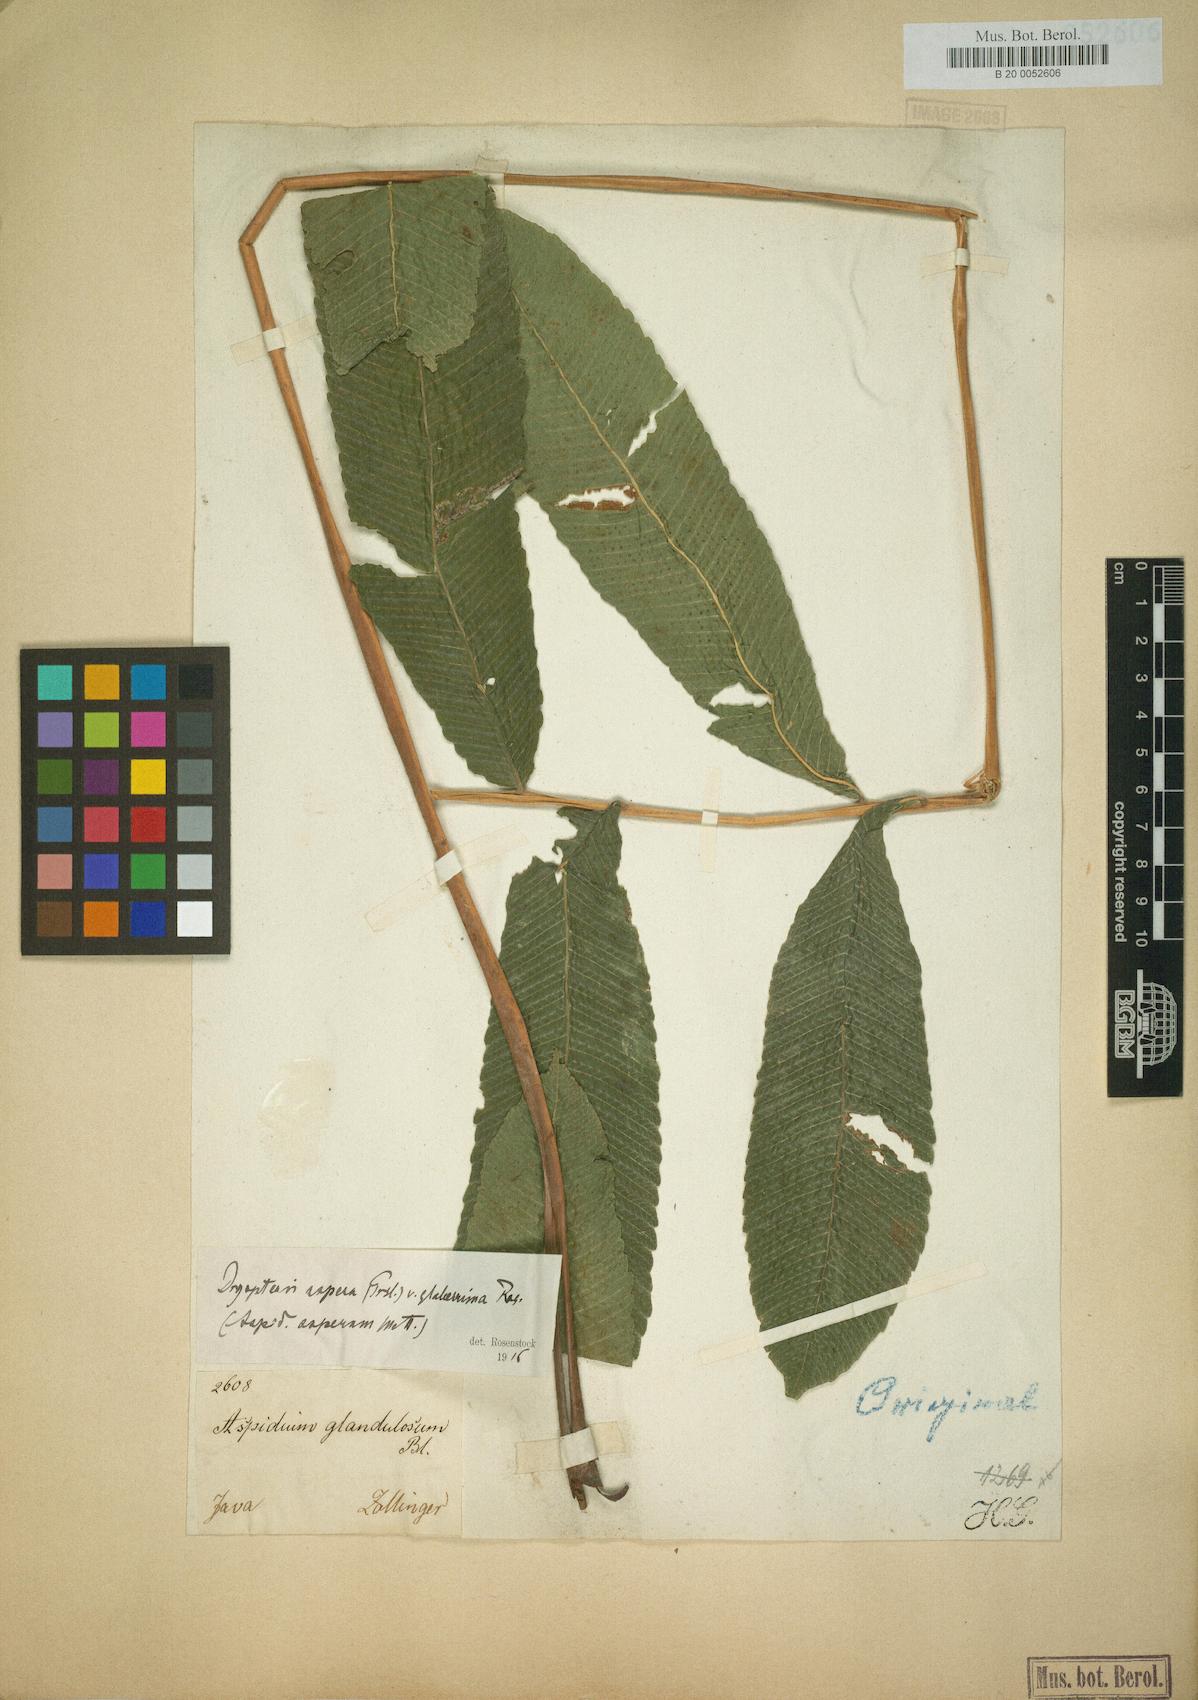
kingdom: Plantae
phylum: Tracheophyta
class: Polypodiopsida
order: Polypodiales
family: Dryopteridaceae
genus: Dryopteris
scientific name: Dryopteris
